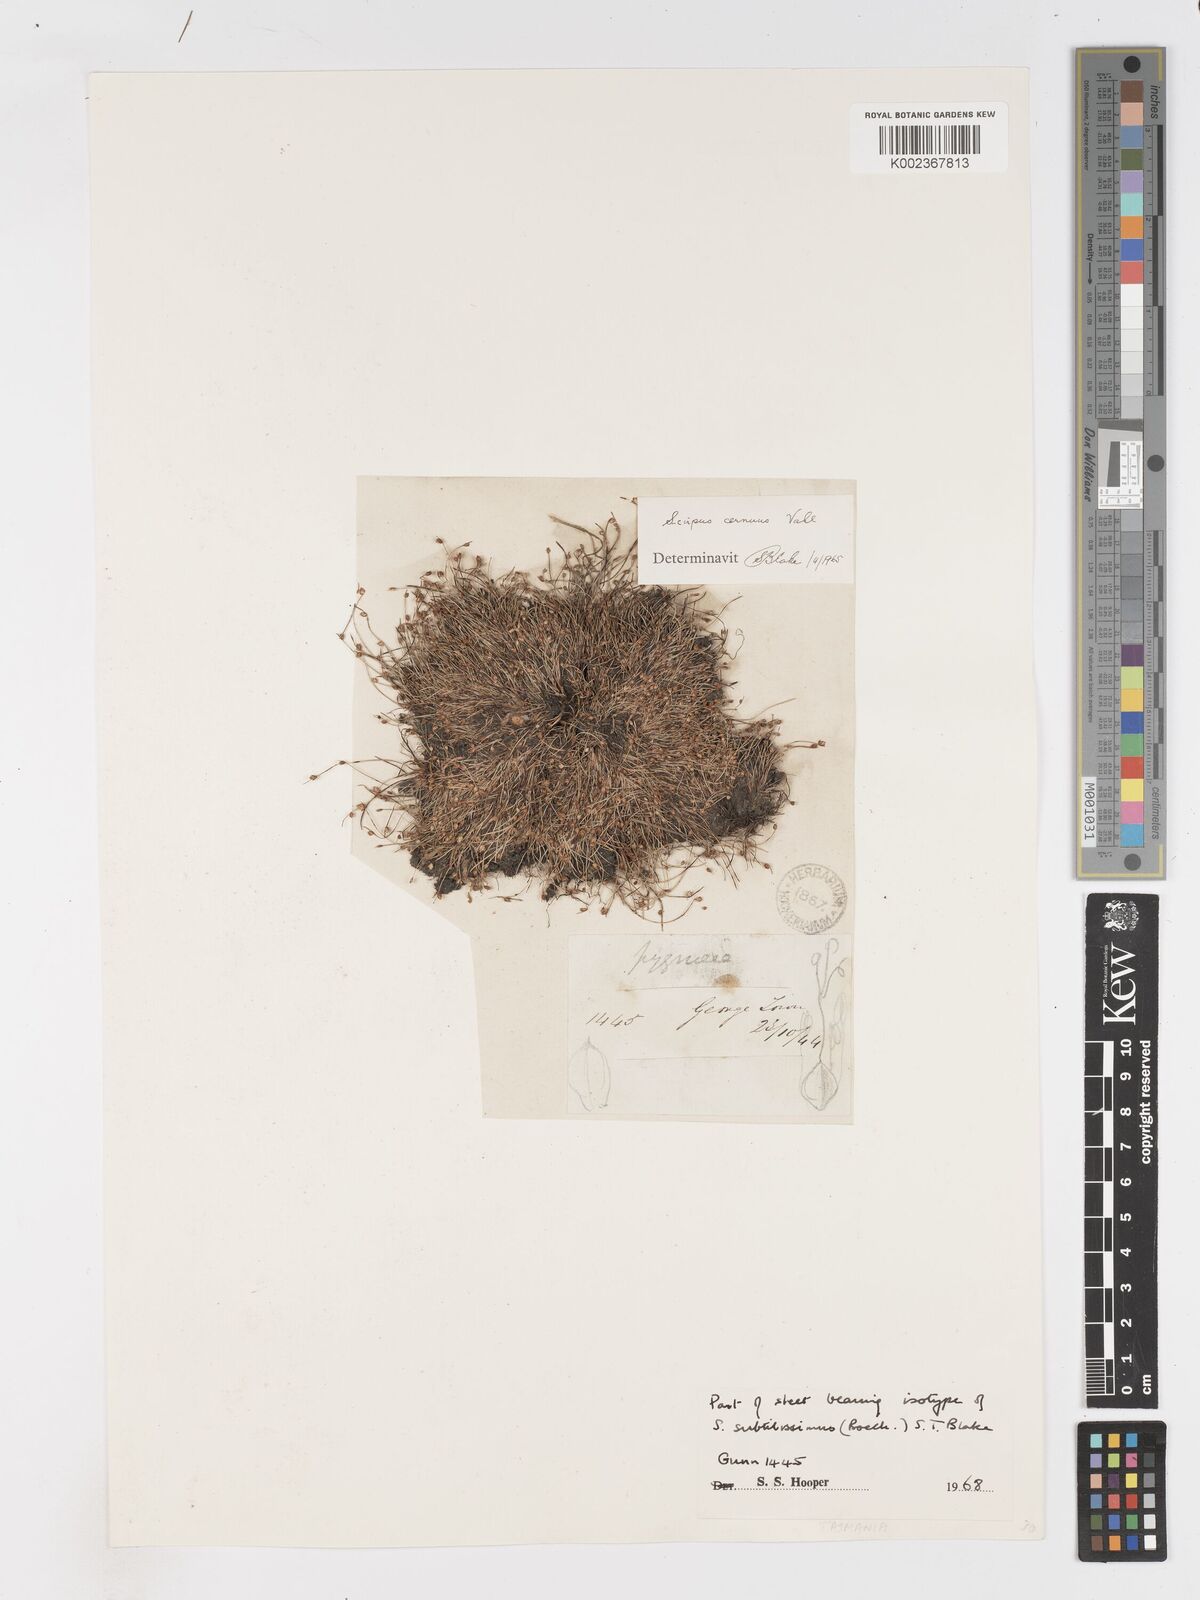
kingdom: Plantae
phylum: Tracheophyta
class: Liliopsida
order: Poales
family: Cyperaceae
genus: Isolepis
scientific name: Isolepis cernua
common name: Slender club-rush
